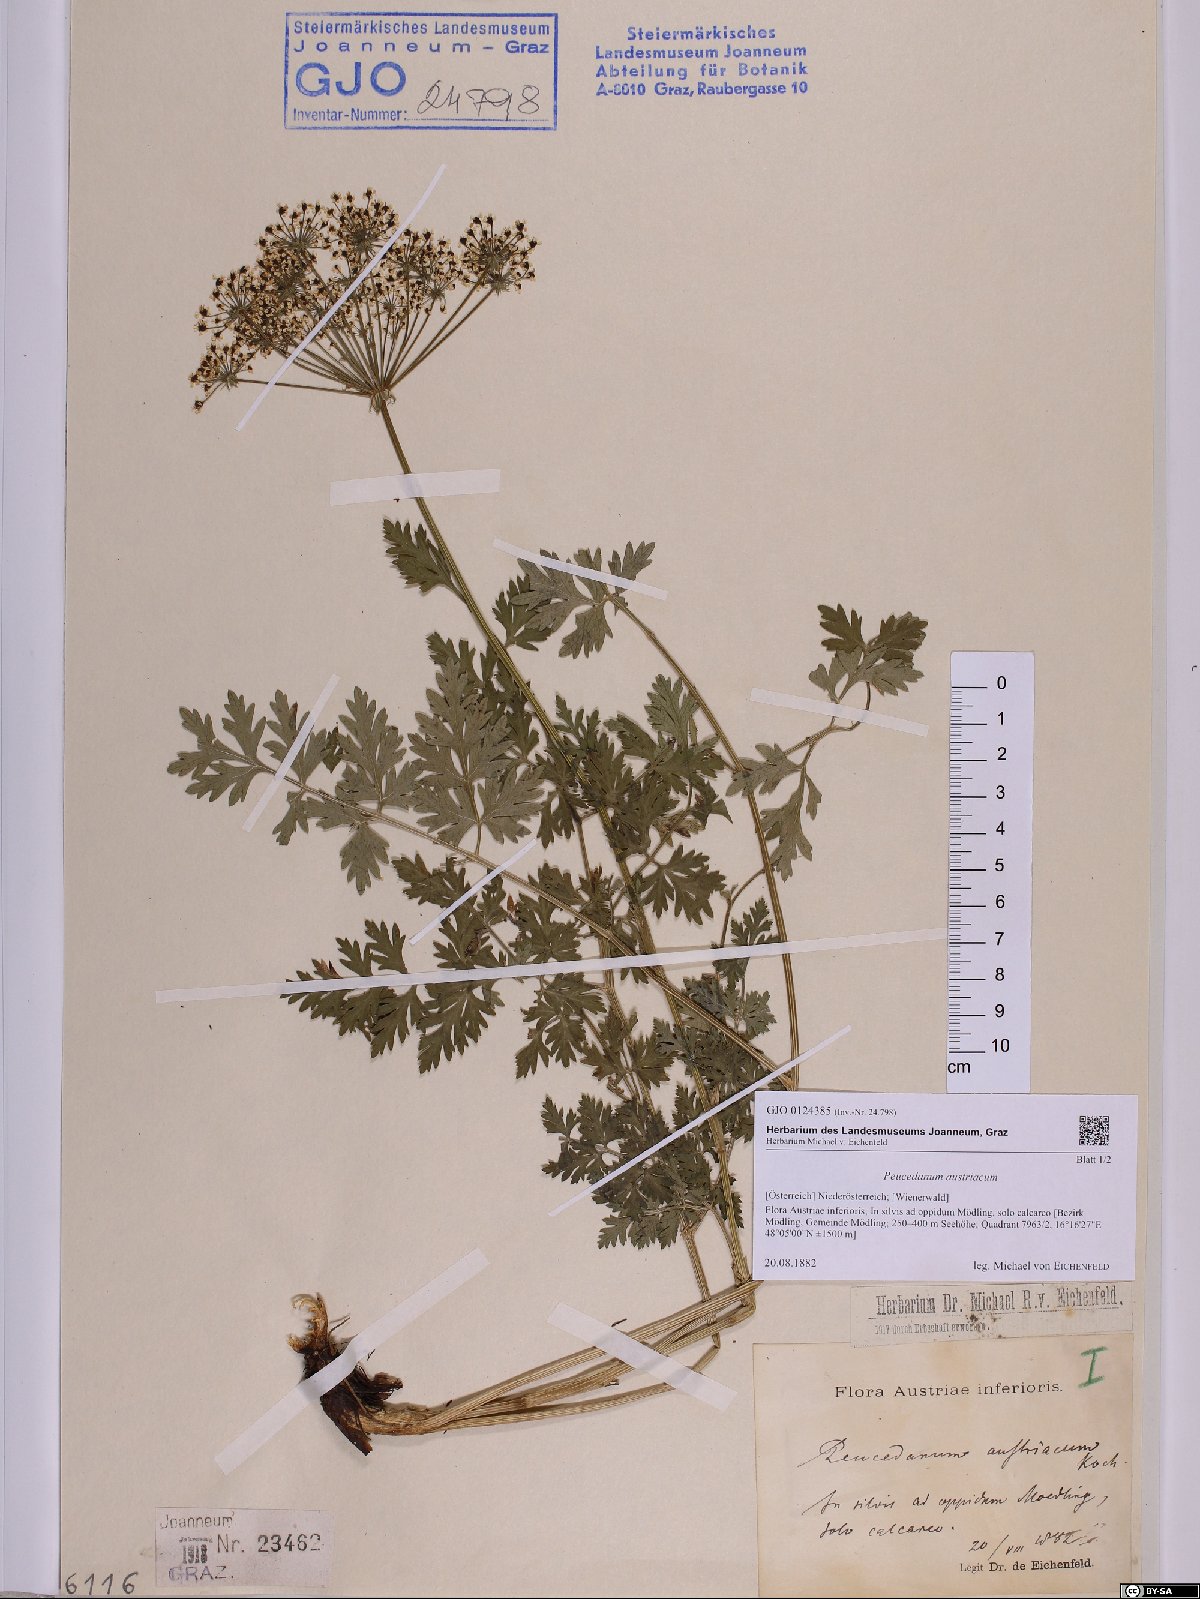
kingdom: Plantae
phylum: Tracheophyta
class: Magnoliopsida
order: Apiales
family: Apiaceae
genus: Peucedanum
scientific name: Peucedanum austriacum
